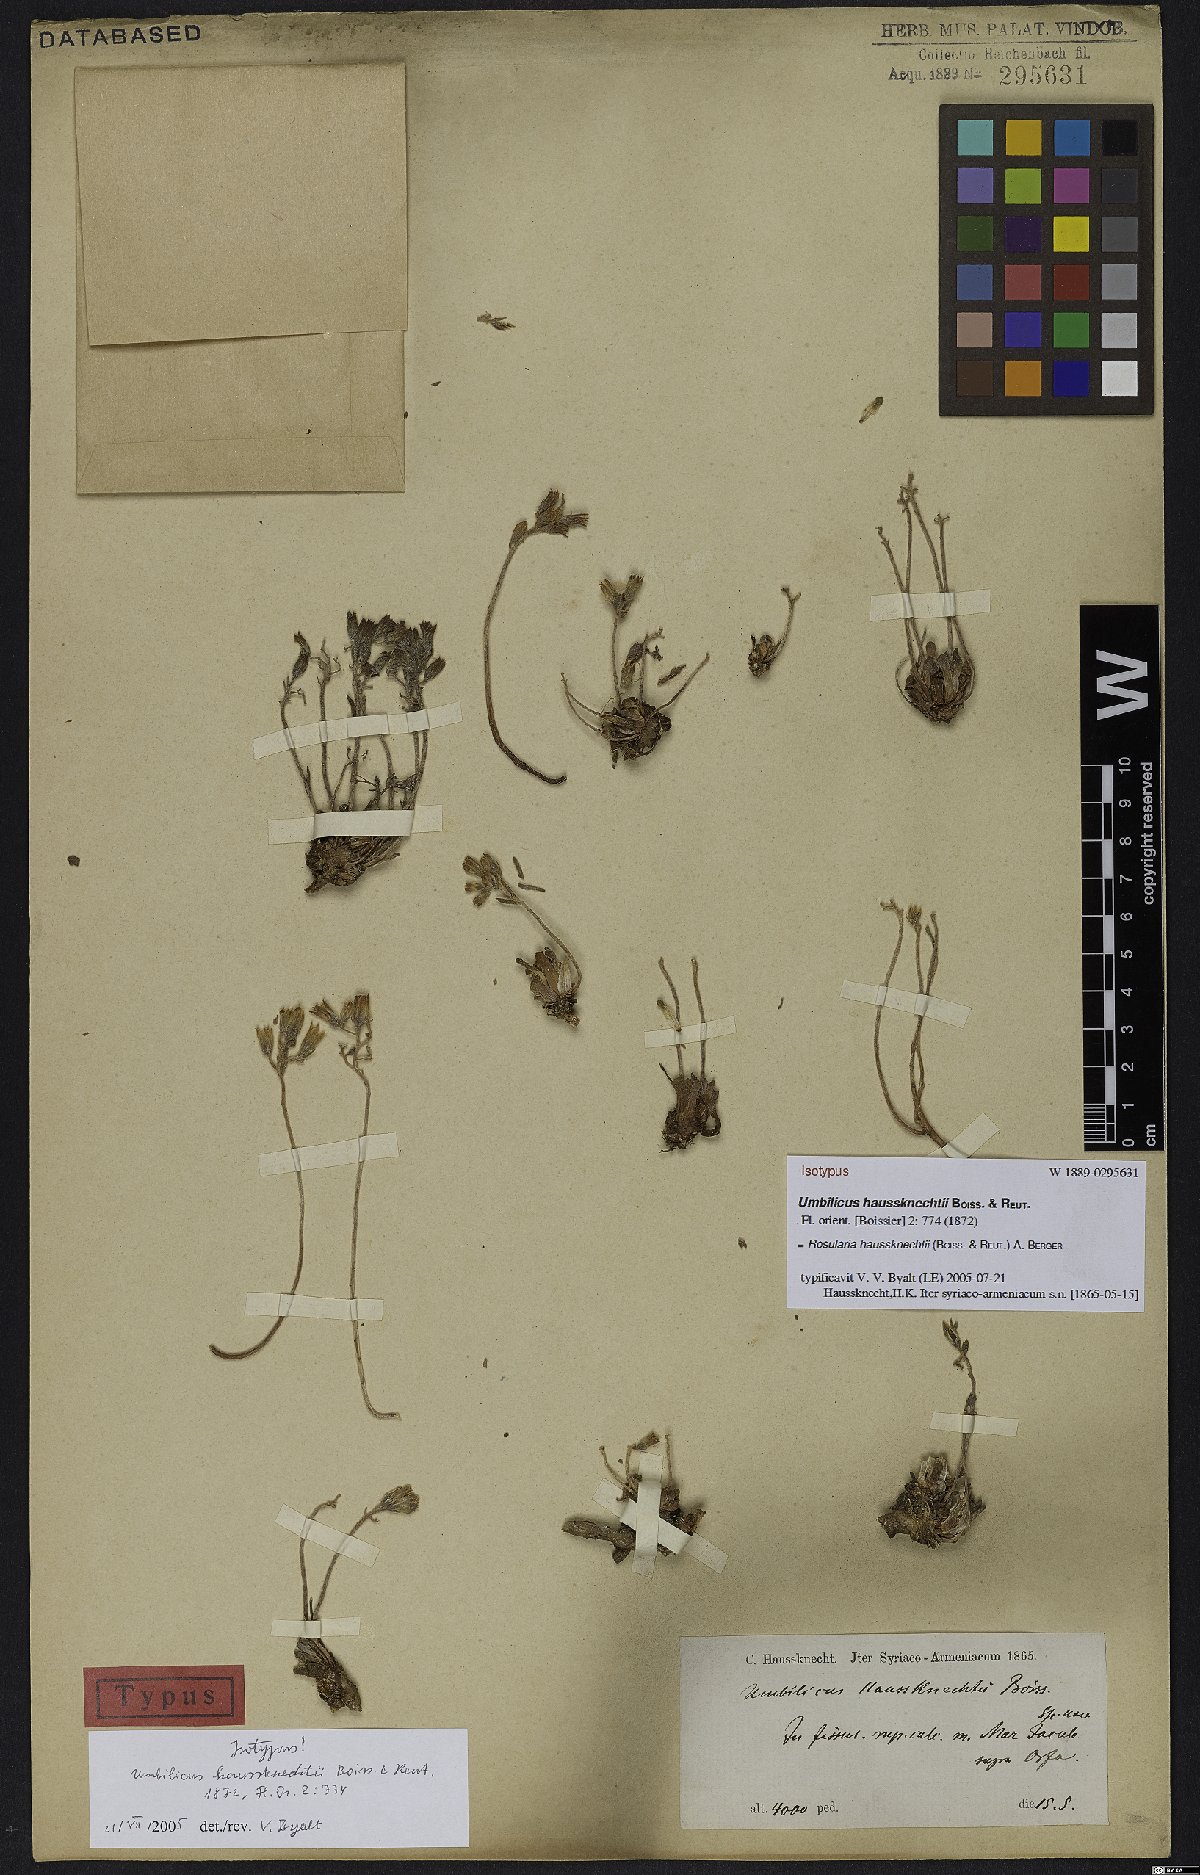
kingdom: Plantae
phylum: Tracheophyta
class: Magnoliopsida
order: Saxifragales
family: Crassulaceae
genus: Rosularia
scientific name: Rosularia haussknechtii
